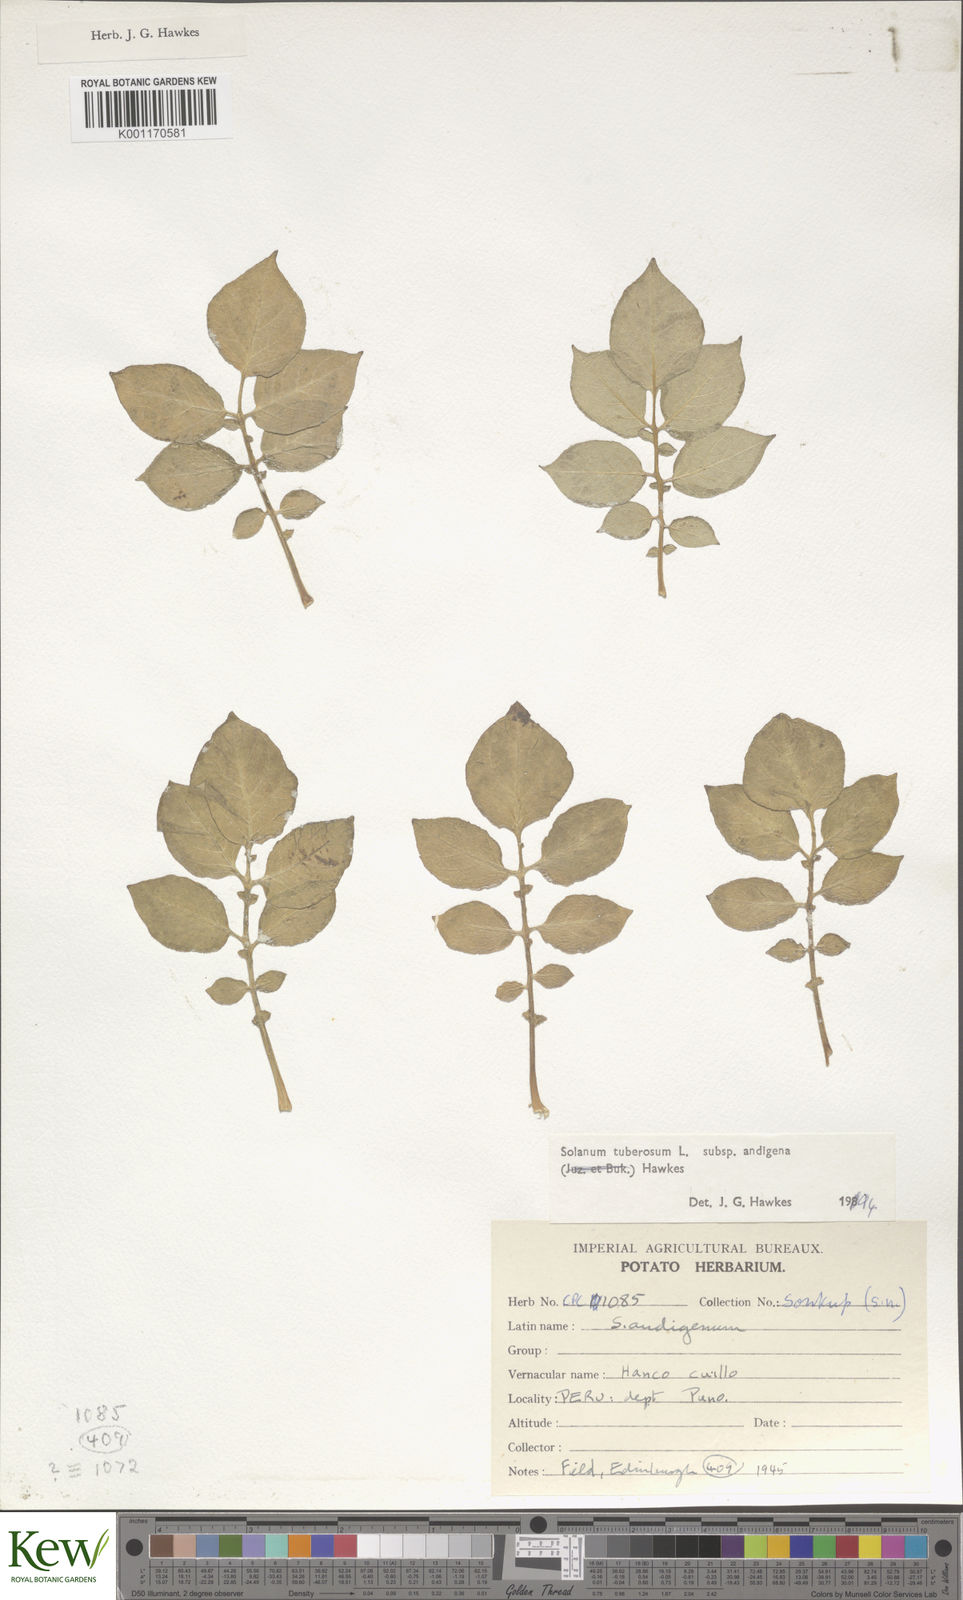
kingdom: Plantae
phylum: Tracheophyta
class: Magnoliopsida
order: Solanales
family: Solanaceae
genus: Solanum
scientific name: Solanum tuberosum
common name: Potato
